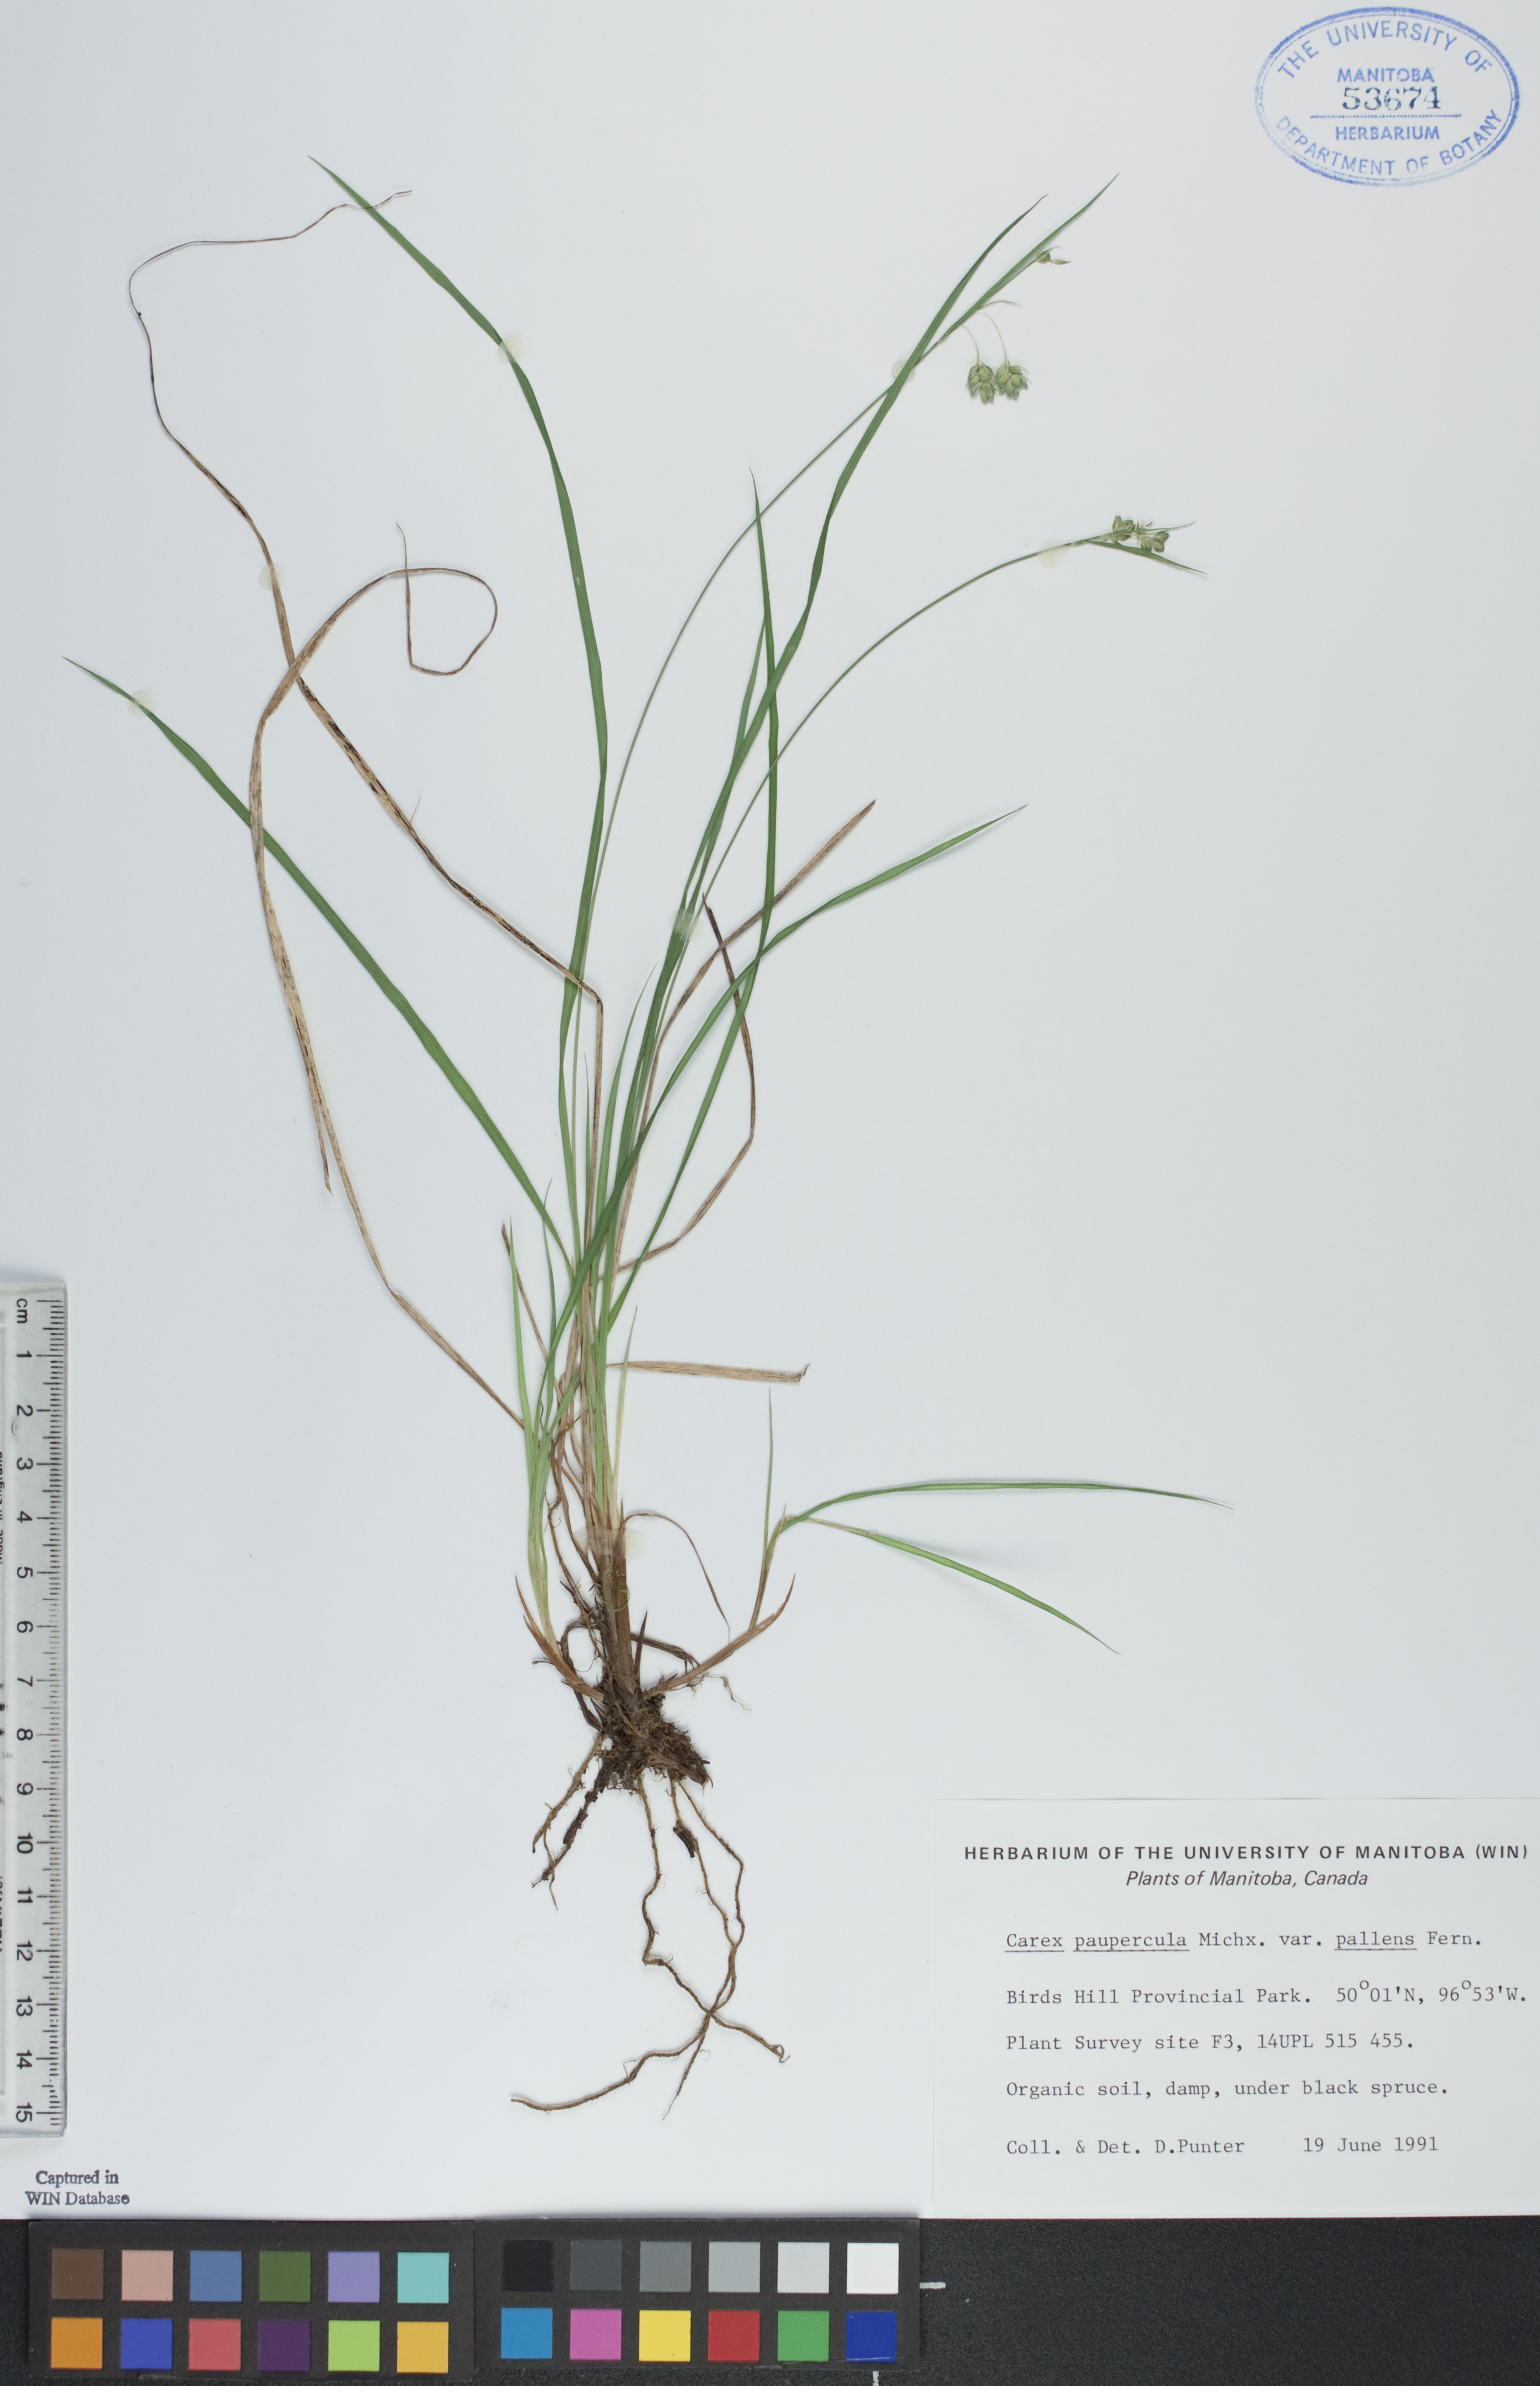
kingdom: Plantae
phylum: Tracheophyta
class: Liliopsida
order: Poales
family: Cyperaceae
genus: Carex
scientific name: Carex magellanica
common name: Bog sedge
